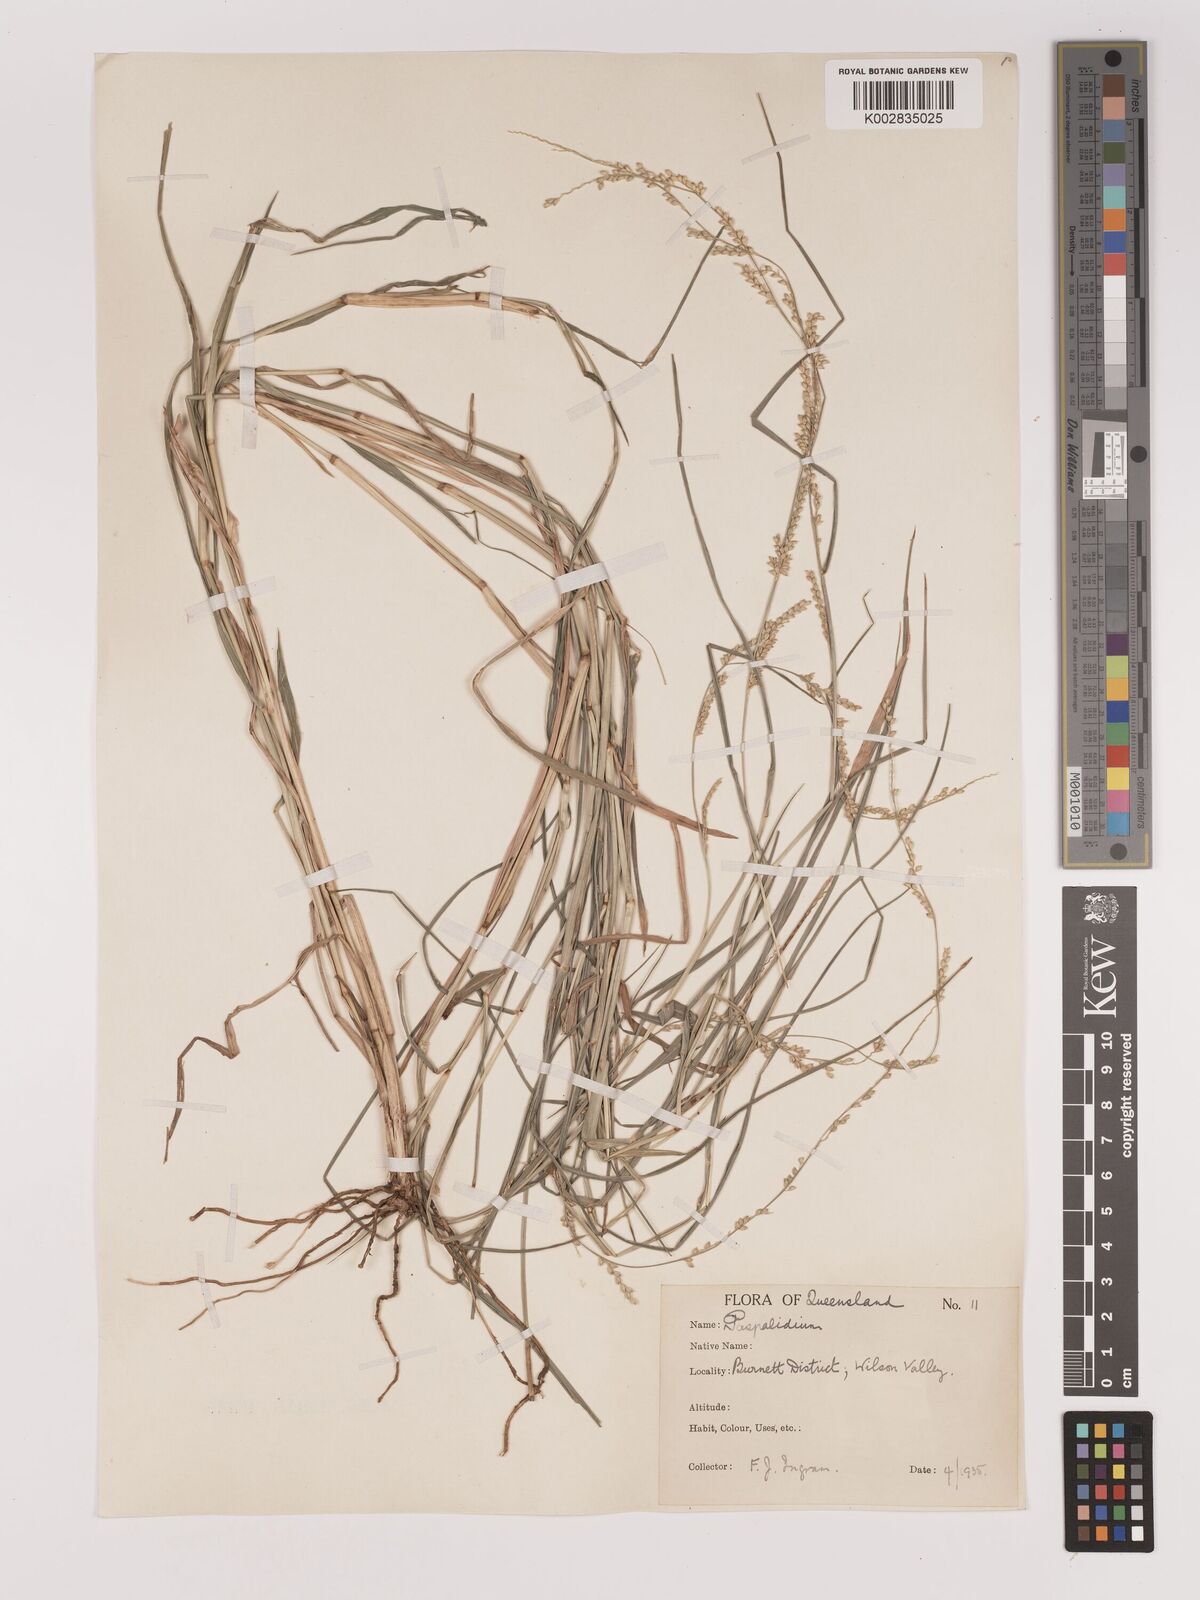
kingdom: Plantae
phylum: Tracheophyta
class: Liliopsida
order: Poales
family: Poaceae
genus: Setaria
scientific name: Setaria
